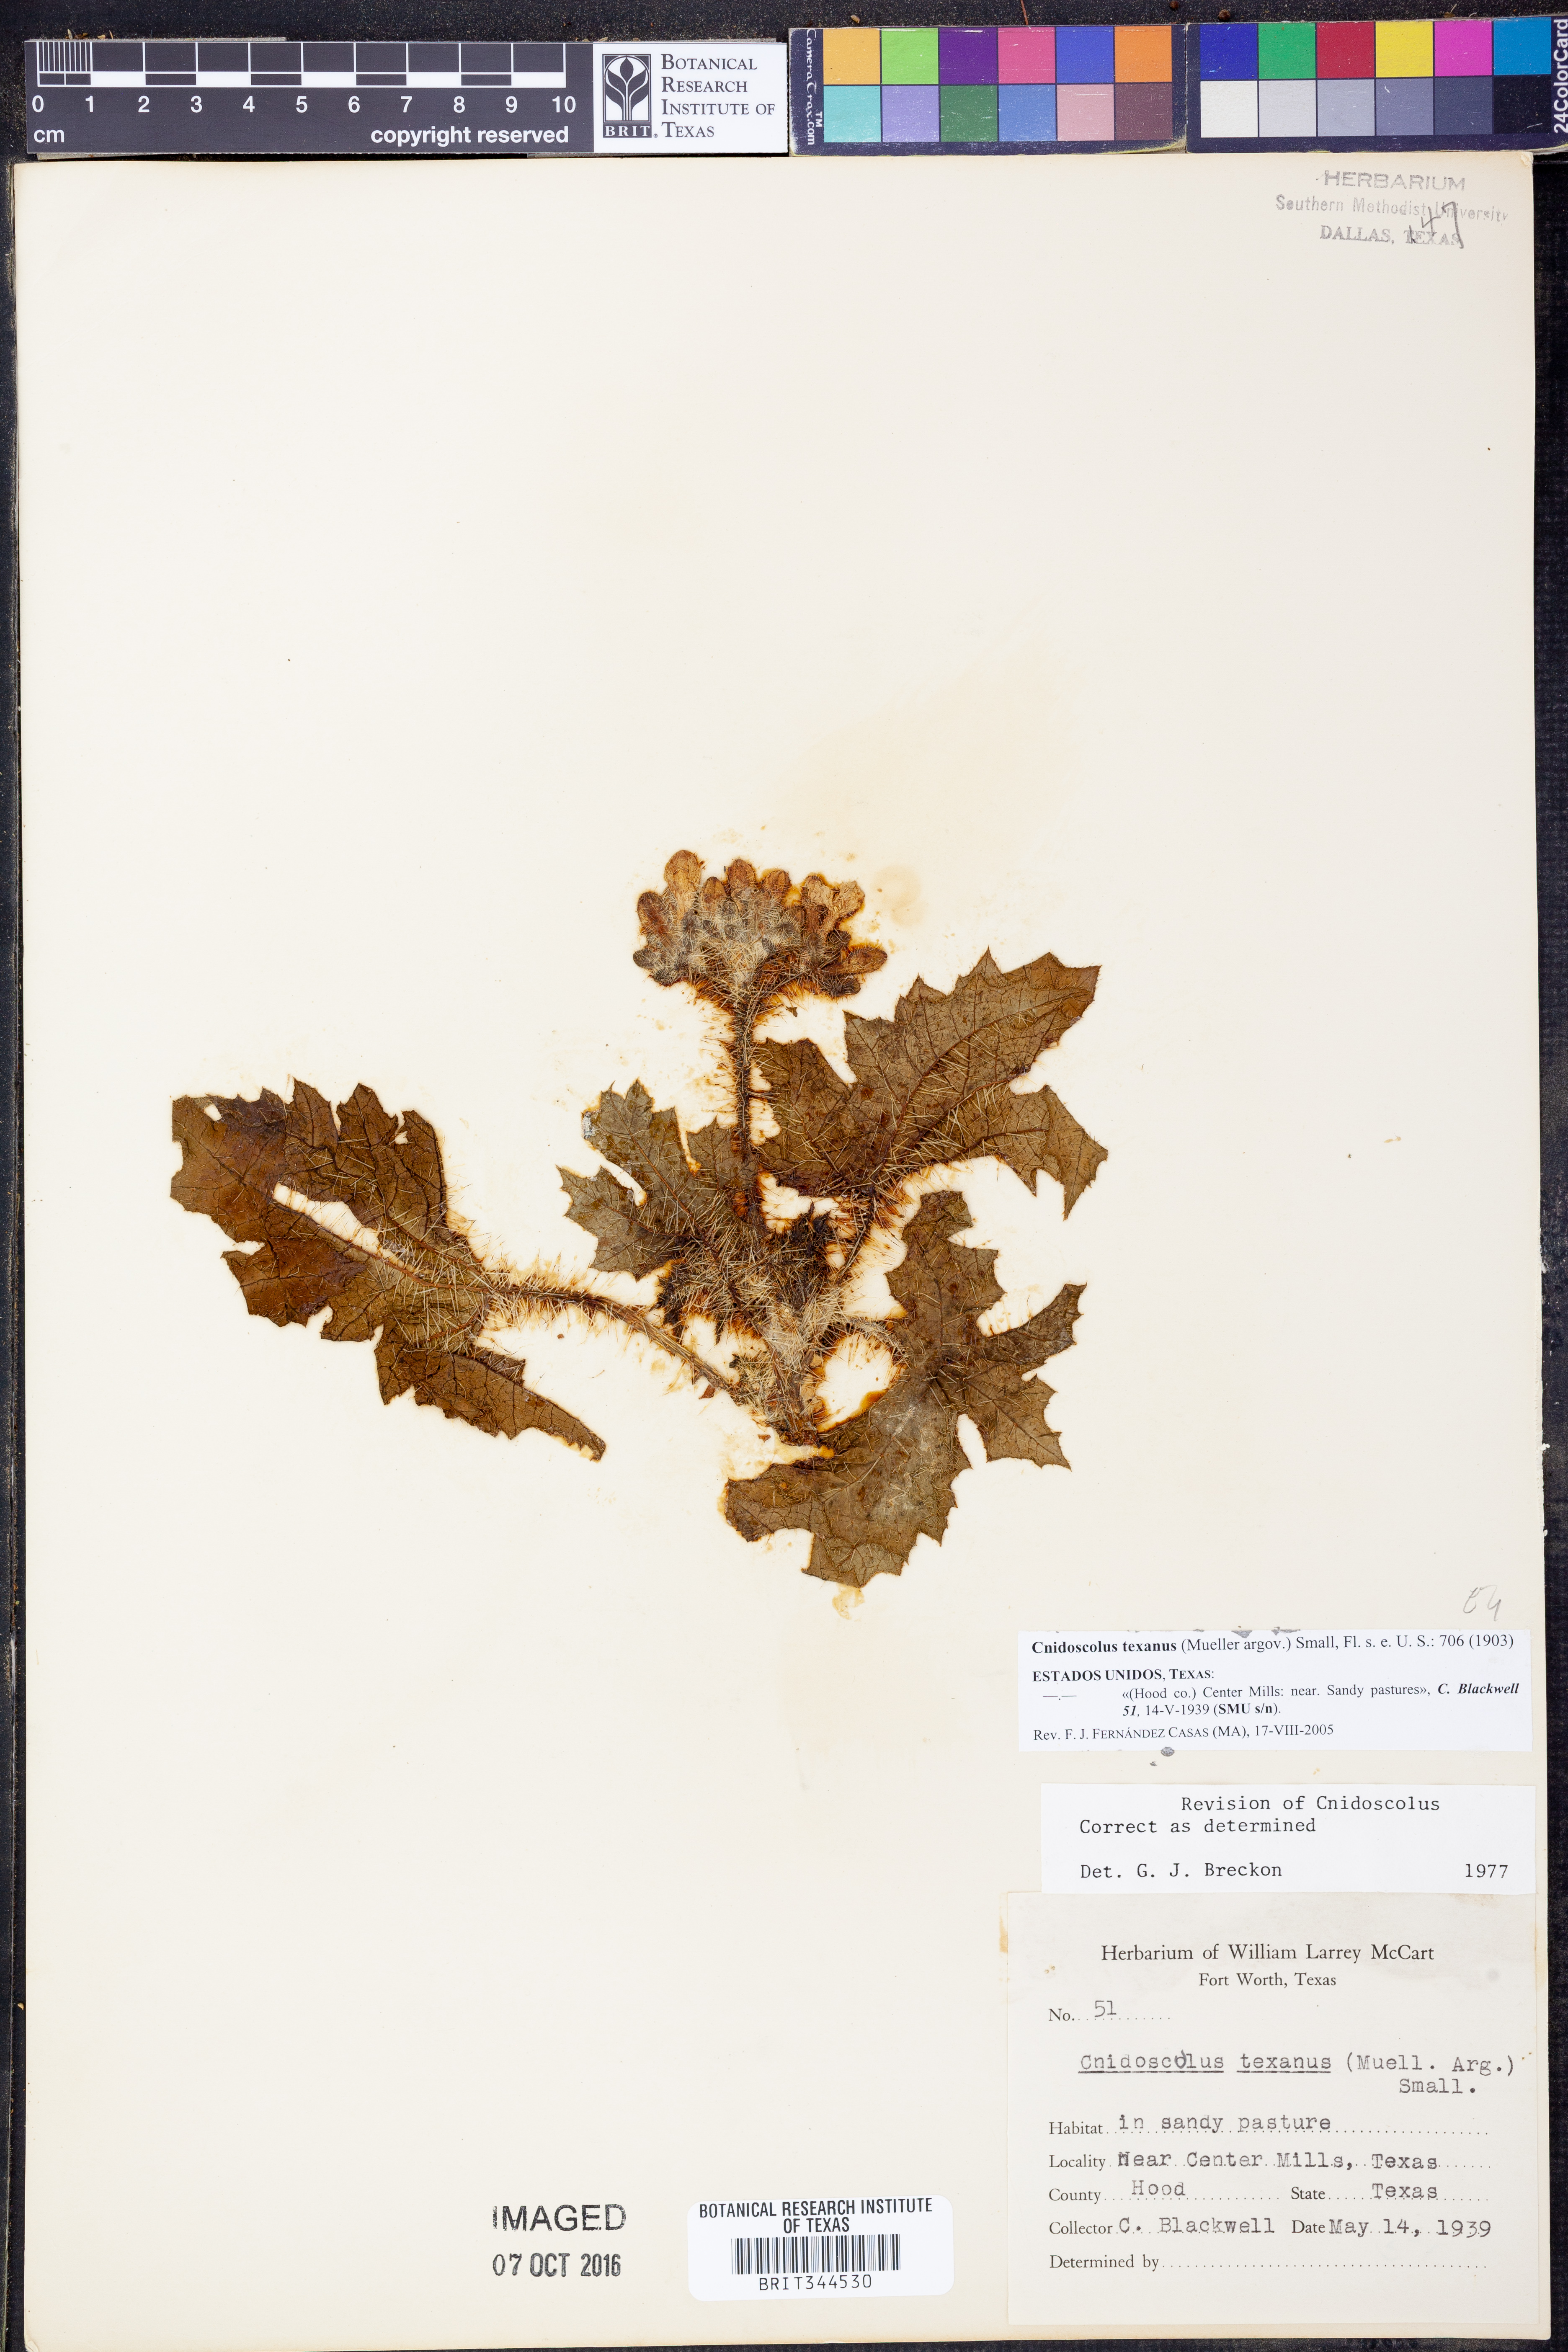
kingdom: Plantae
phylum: Tracheophyta
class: Magnoliopsida
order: Malpighiales
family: Euphorbiaceae
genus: Cnidoscolus
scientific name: Cnidoscolus texanus
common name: Texas bull-nettle
